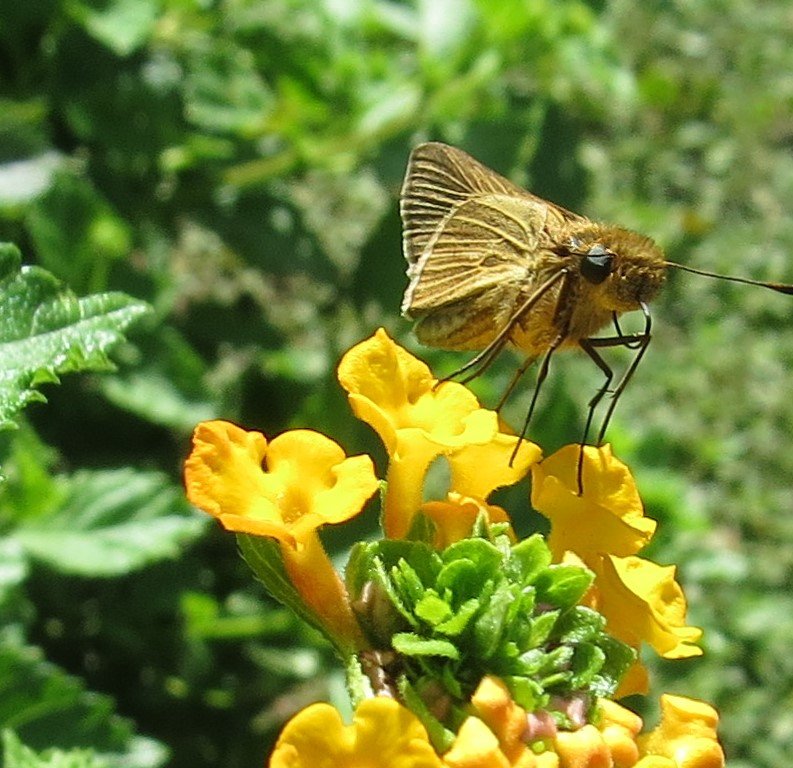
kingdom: Animalia
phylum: Arthropoda
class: Insecta
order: Lepidoptera
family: Hesperiidae
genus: Panoquina
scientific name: Panoquina ocola
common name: Ocola Skipper
